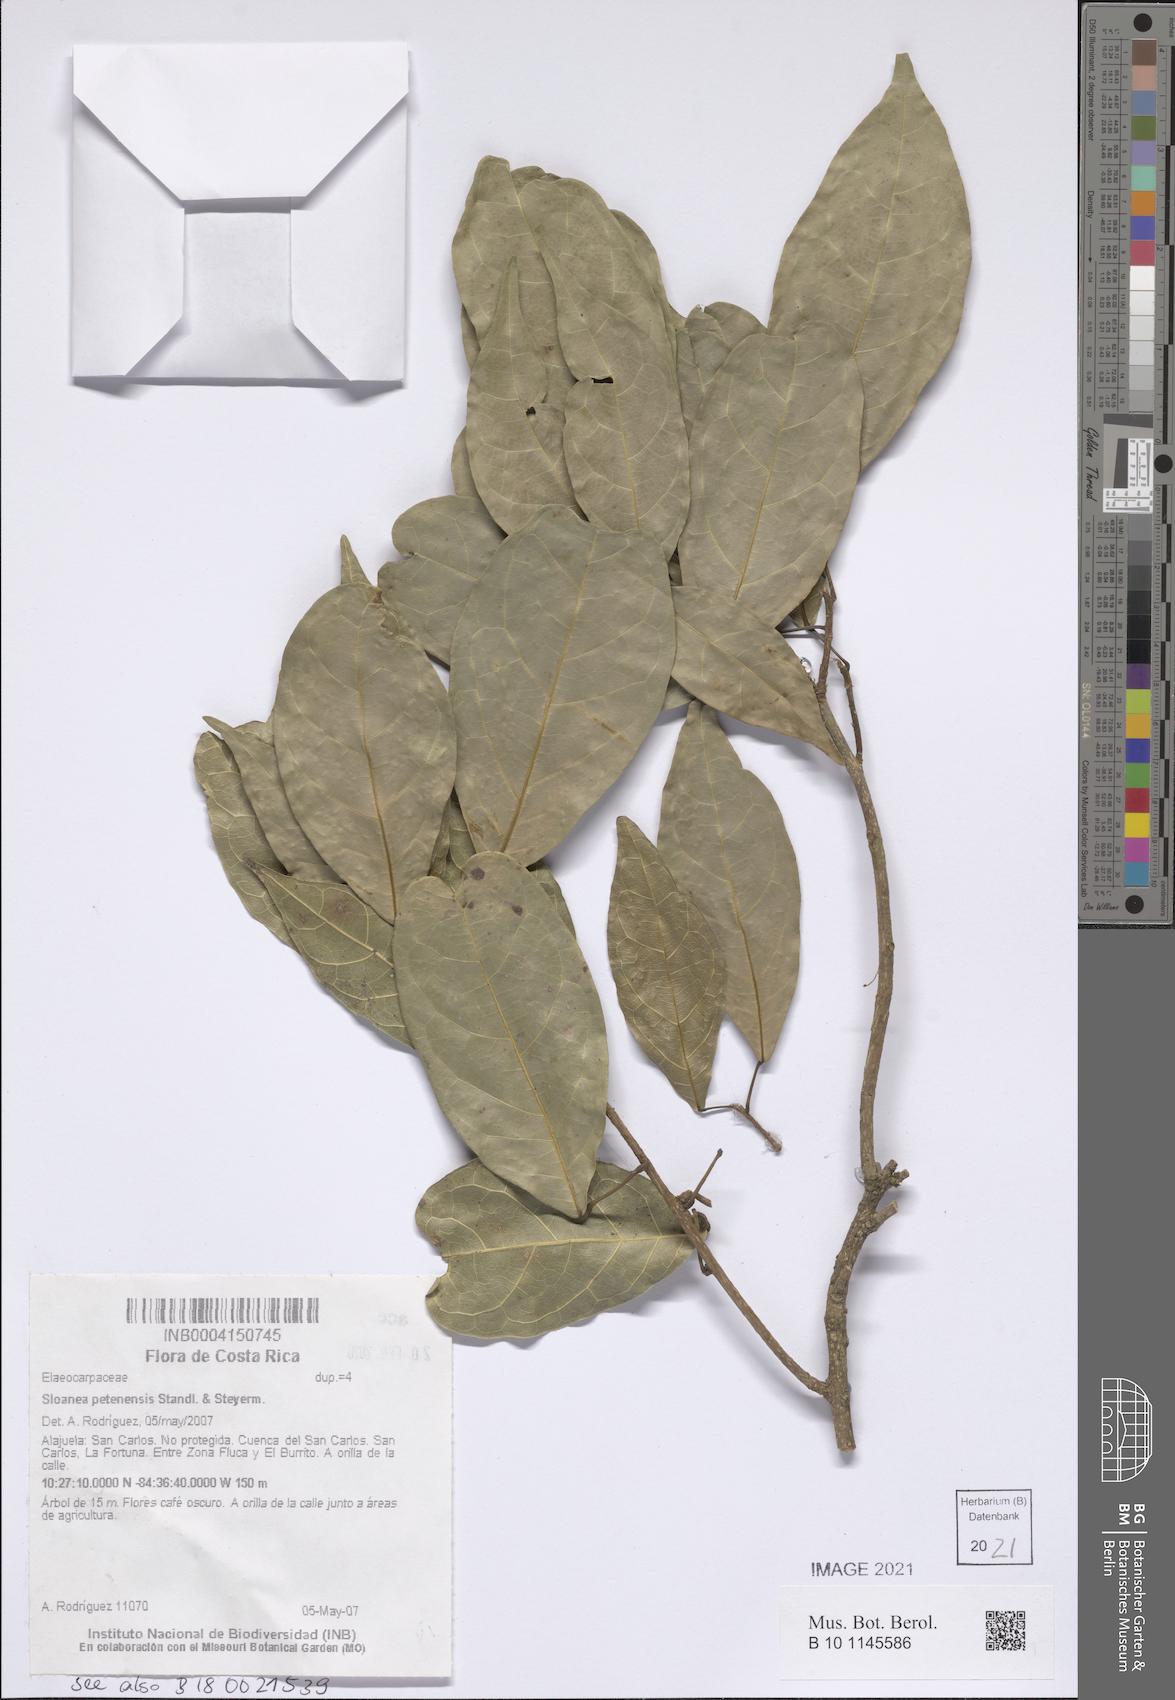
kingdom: Plantae
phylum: Tracheophyta
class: Magnoliopsida
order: Oxalidales
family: Elaeocarpaceae
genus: Sloanea
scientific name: Sloanea petenensis
